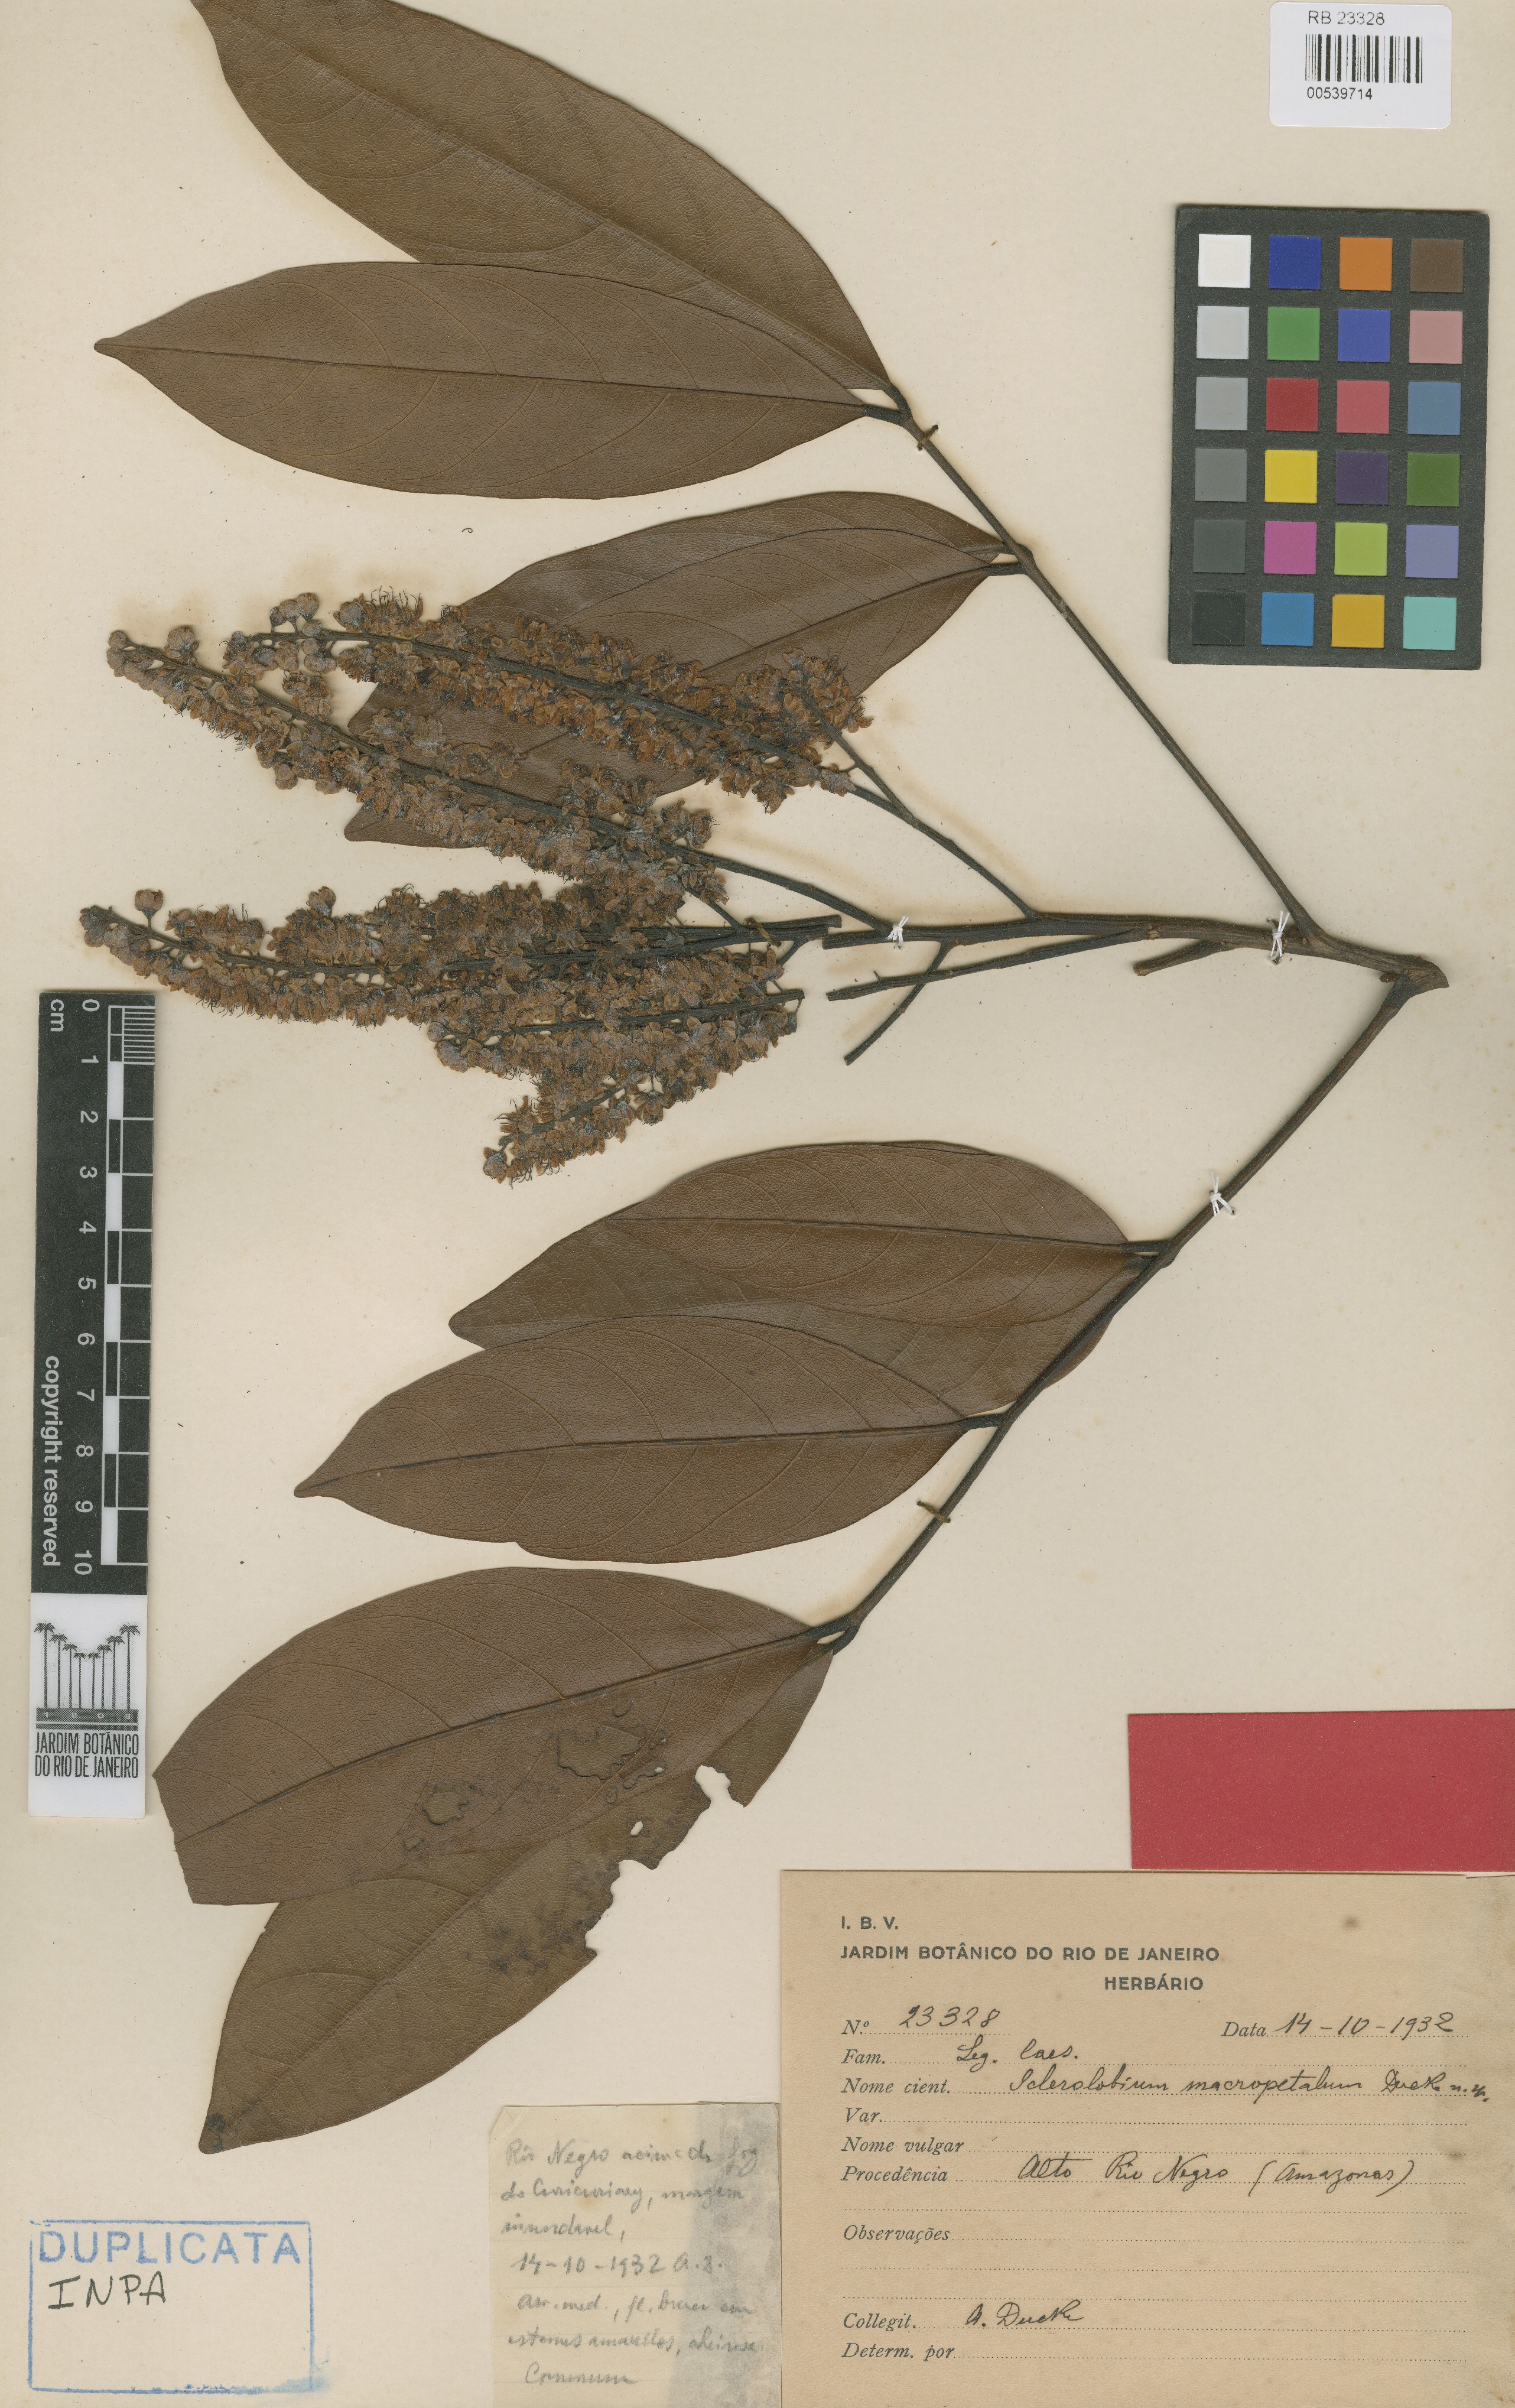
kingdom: Plantae
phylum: Tracheophyta
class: Magnoliopsida
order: Fabales
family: Fabaceae
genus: Tachigali
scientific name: Tachigali macropetala
